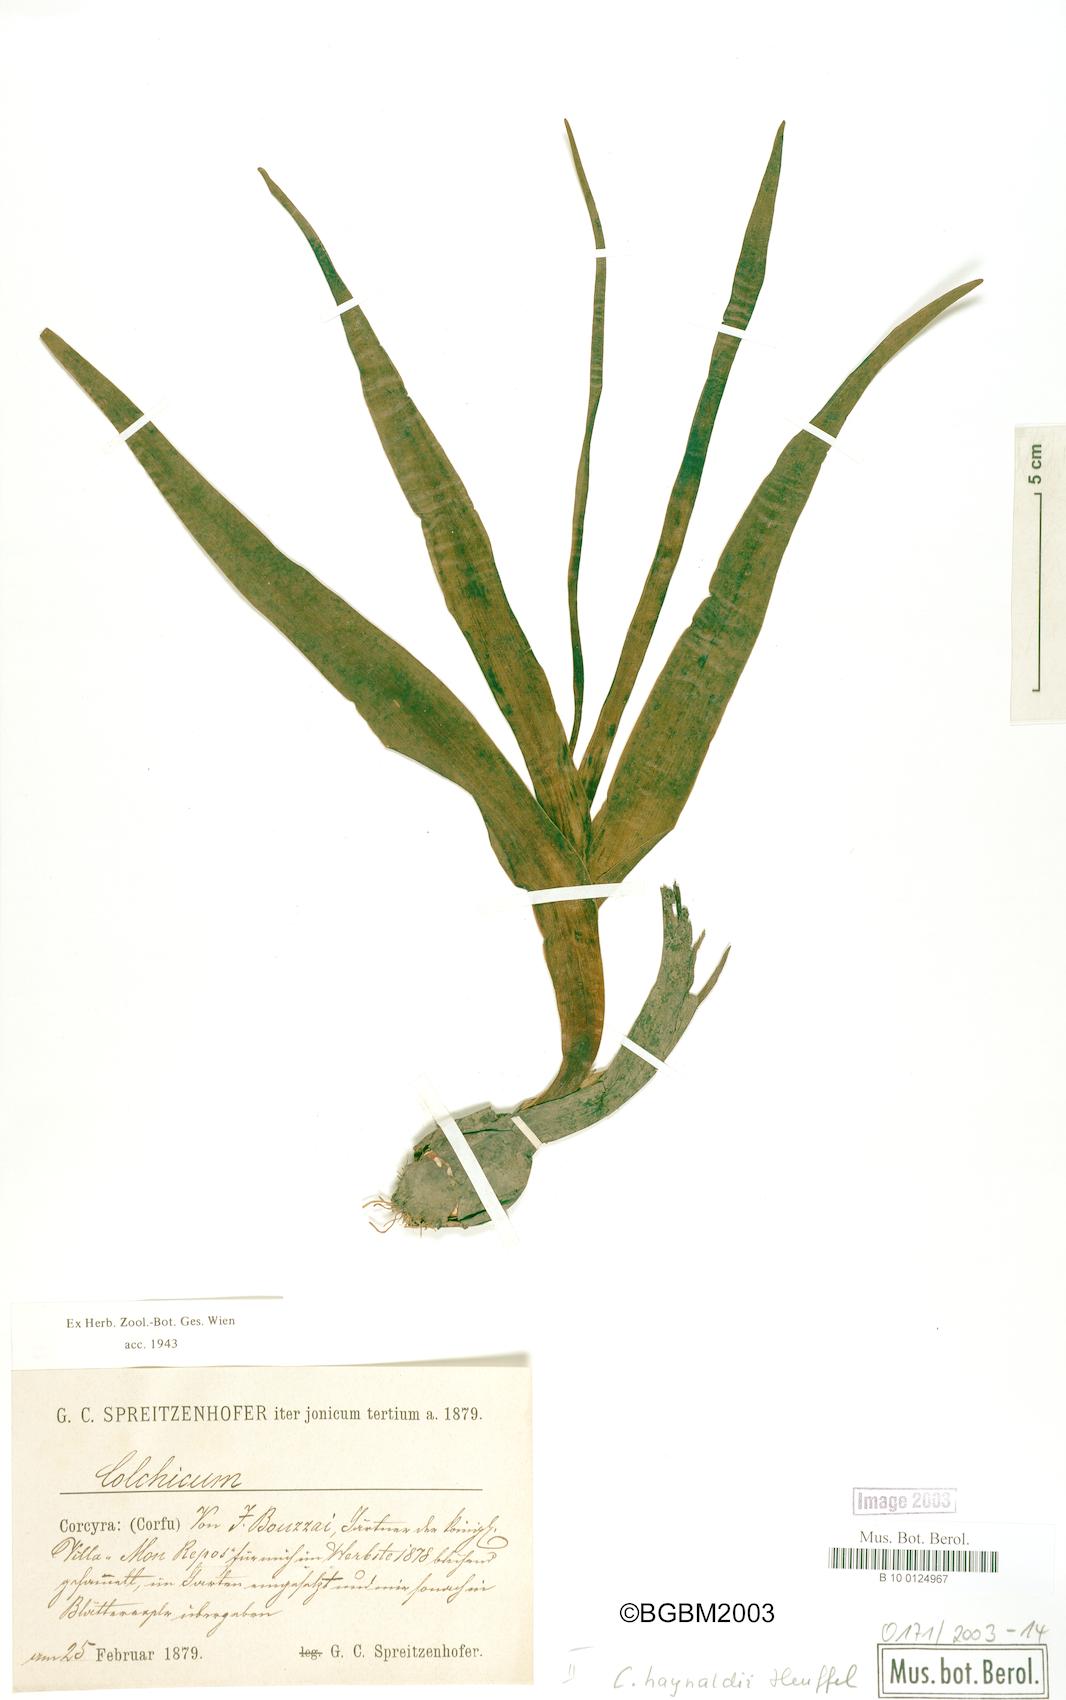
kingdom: Plantae
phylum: Tracheophyta
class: Liliopsida
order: Liliales
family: Colchicaceae
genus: Colchicum
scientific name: Colchicum haynaldii
